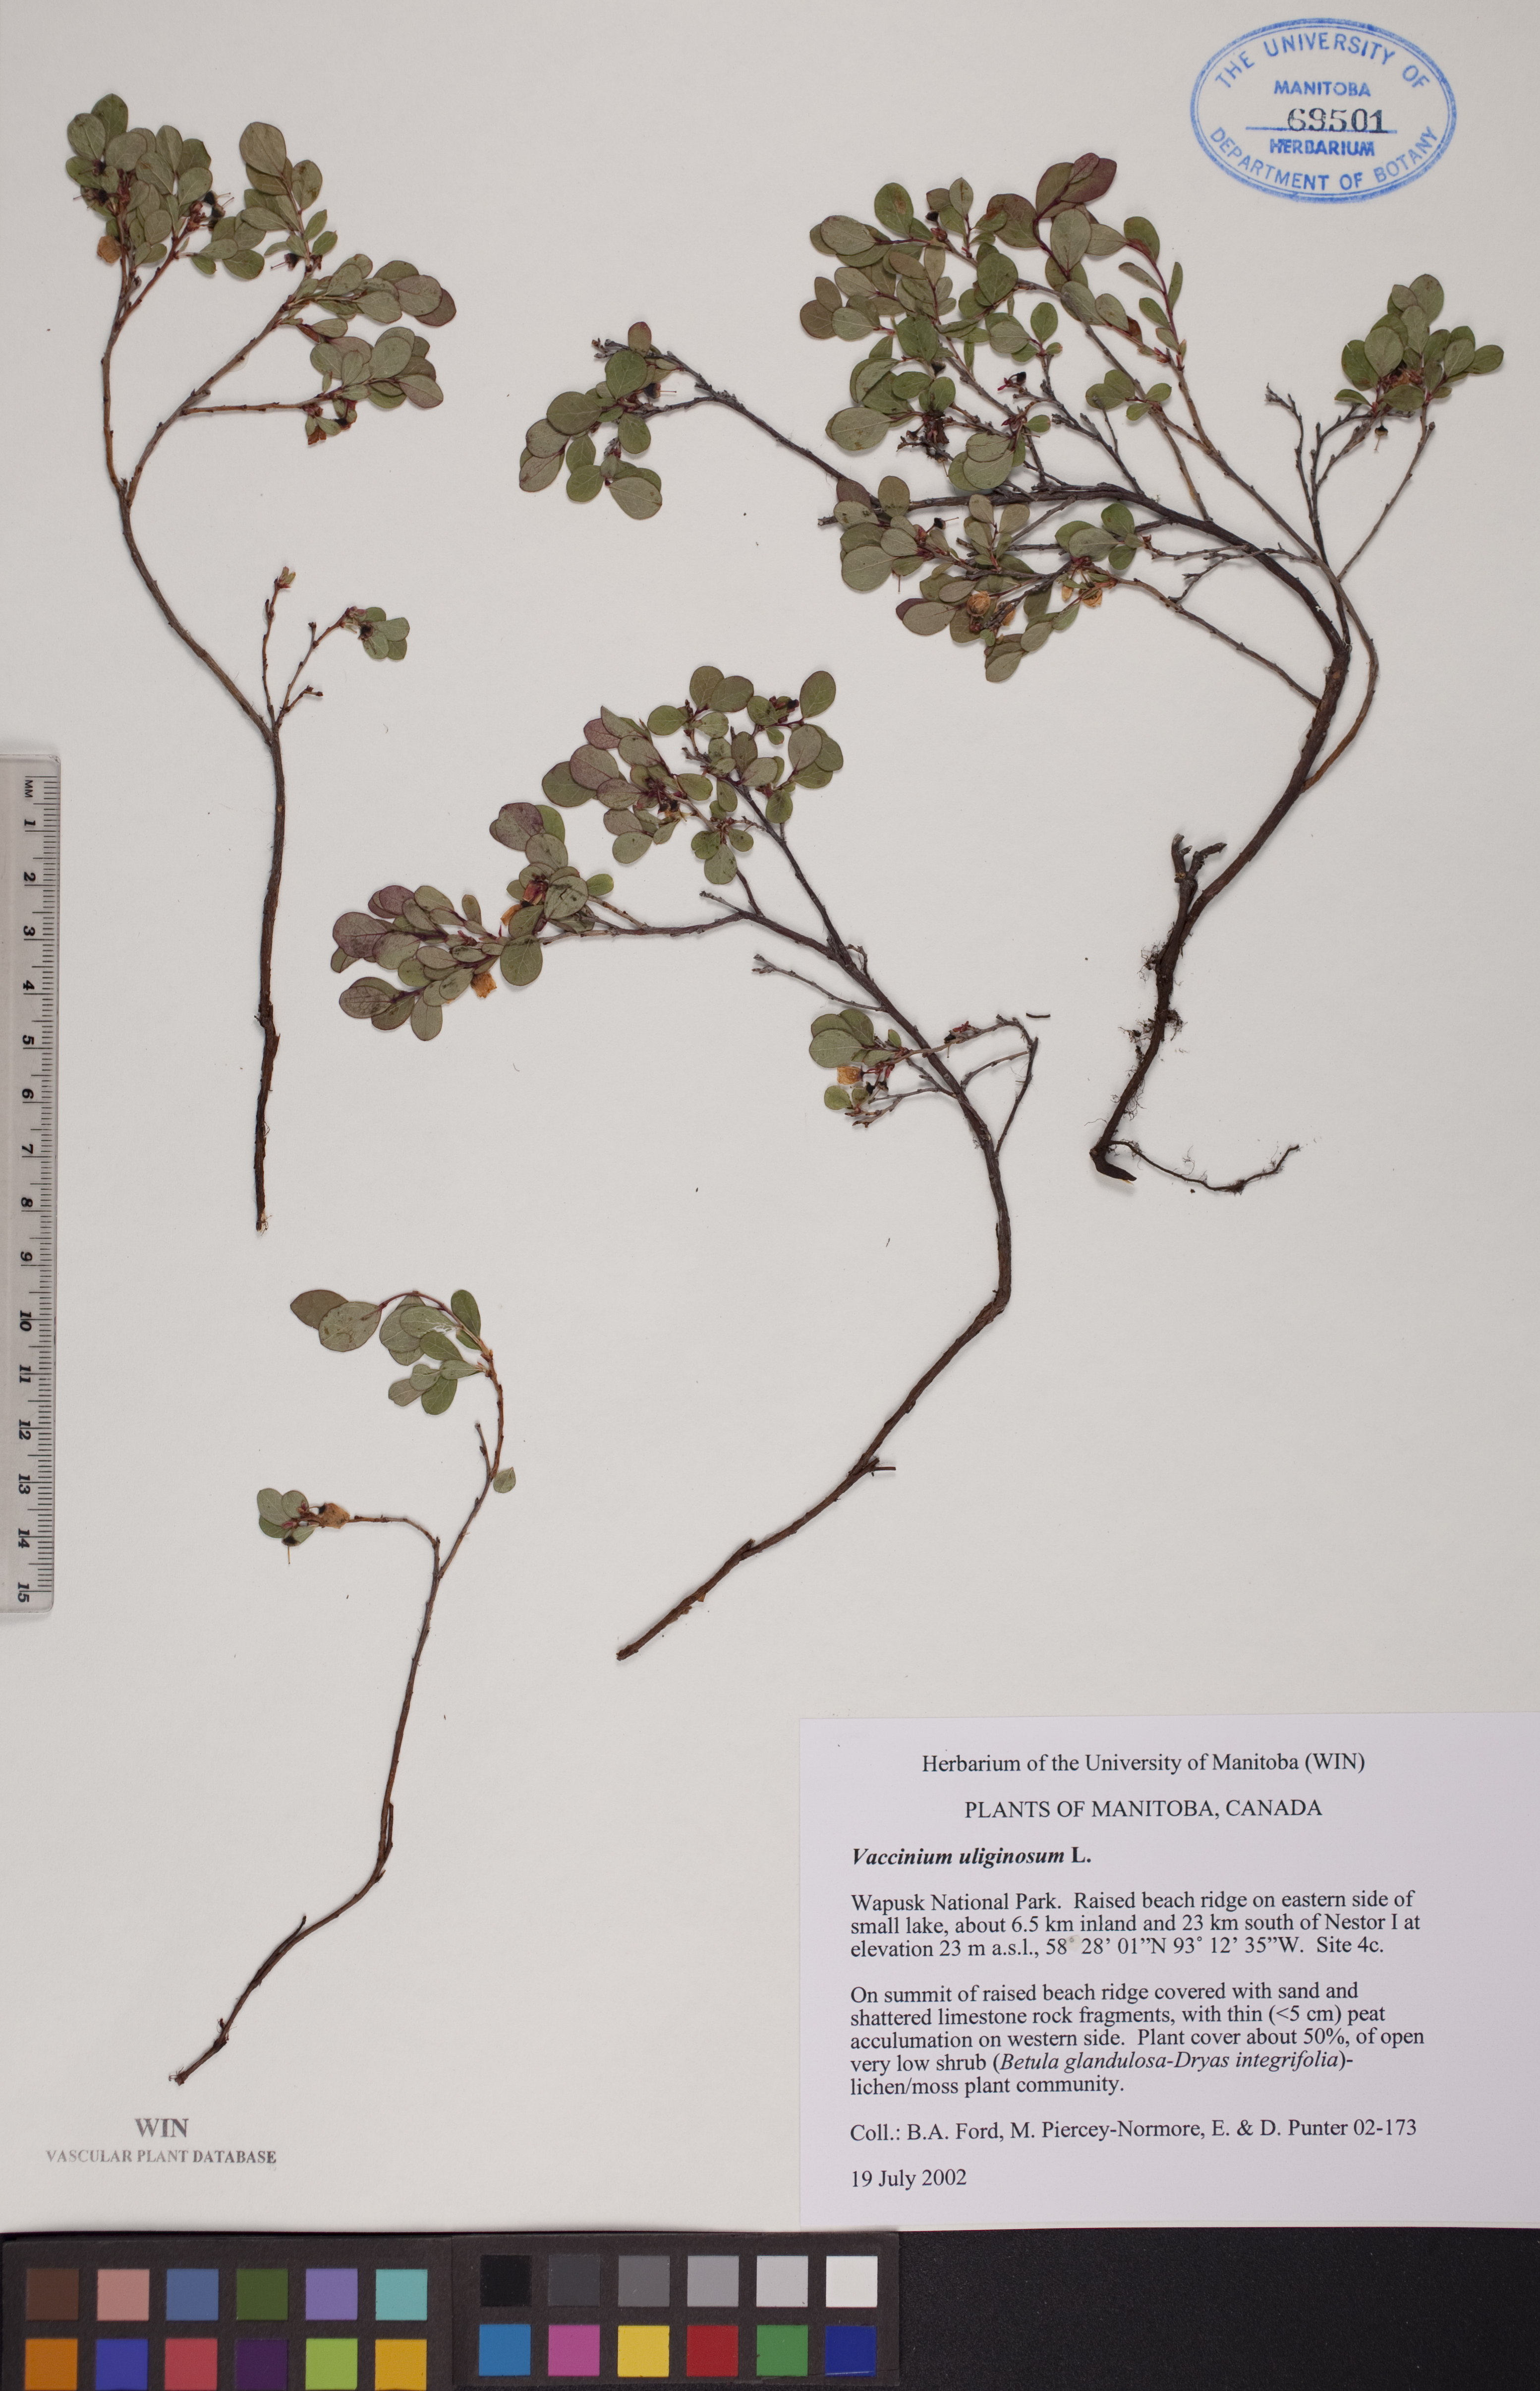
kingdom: Plantae
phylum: Tracheophyta
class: Magnoliopsida
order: Ericales
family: Ericaceae
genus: Vaccinium
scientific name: Vaccinium uliginosum
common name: Bog bilberry
